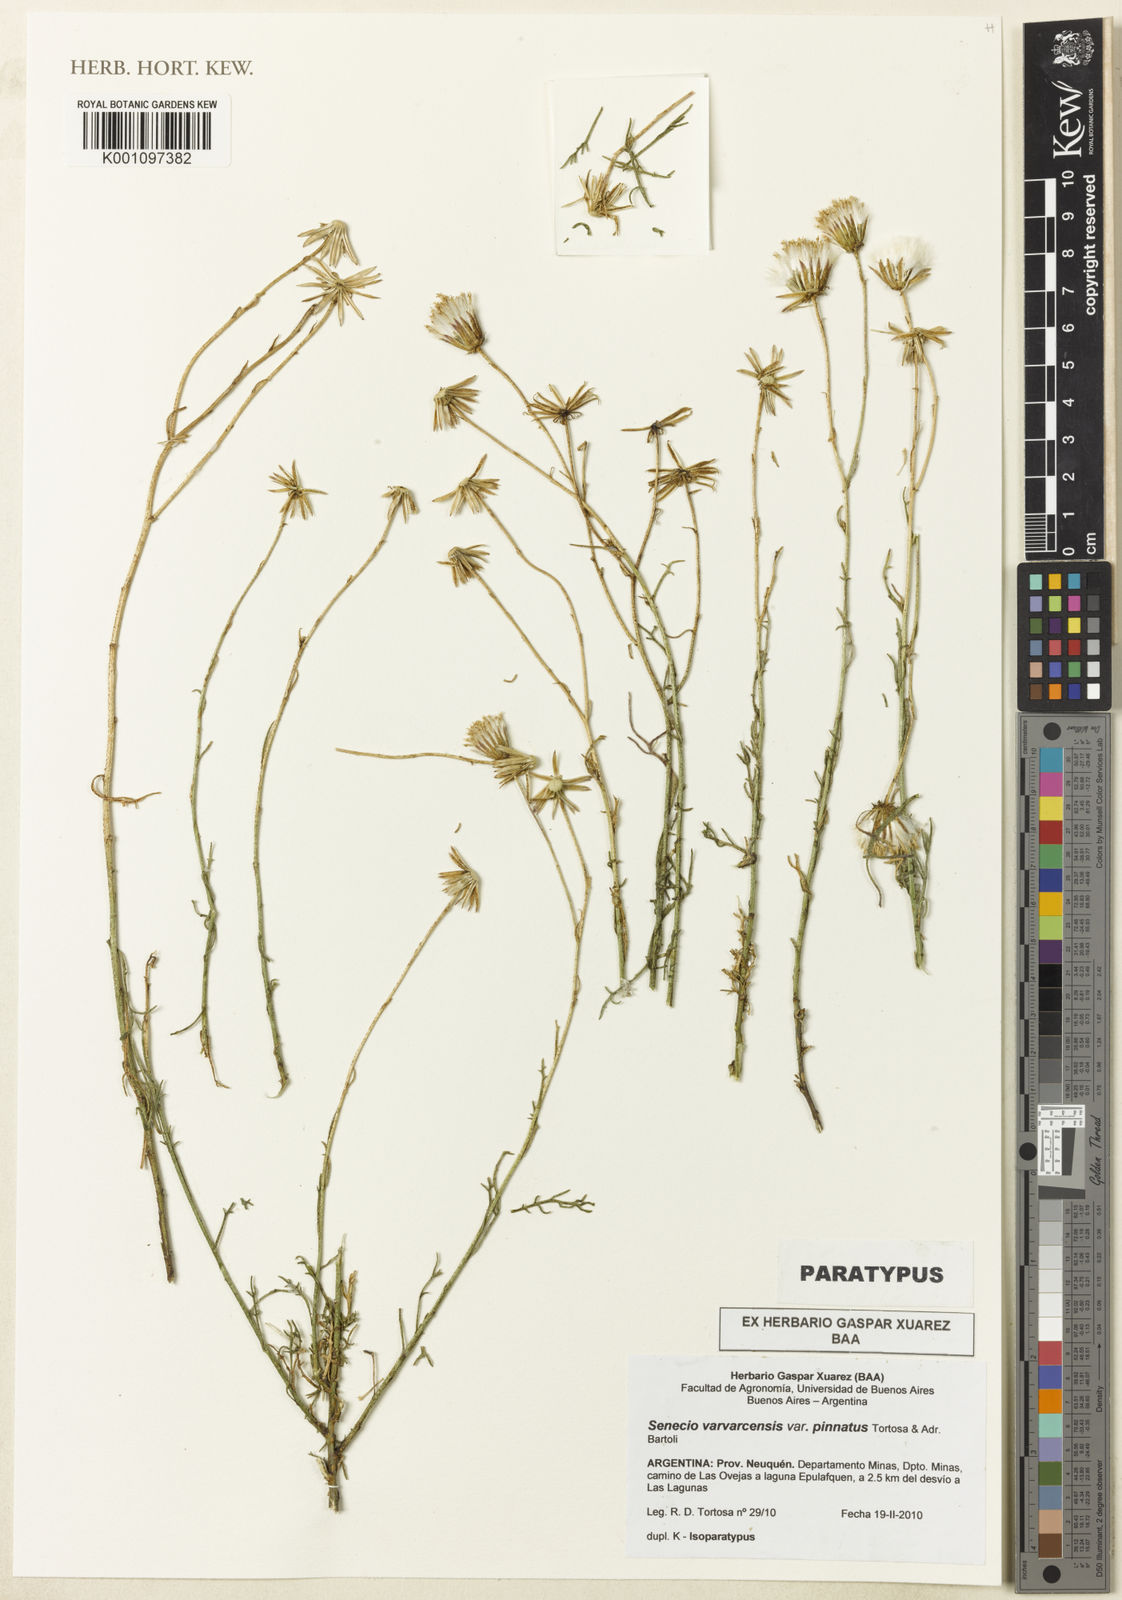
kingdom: Plantae
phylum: Tracheophyta
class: Magnoliopsida
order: Asterales
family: Asteraceae
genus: Senecio
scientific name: Senecio varvarcensis
